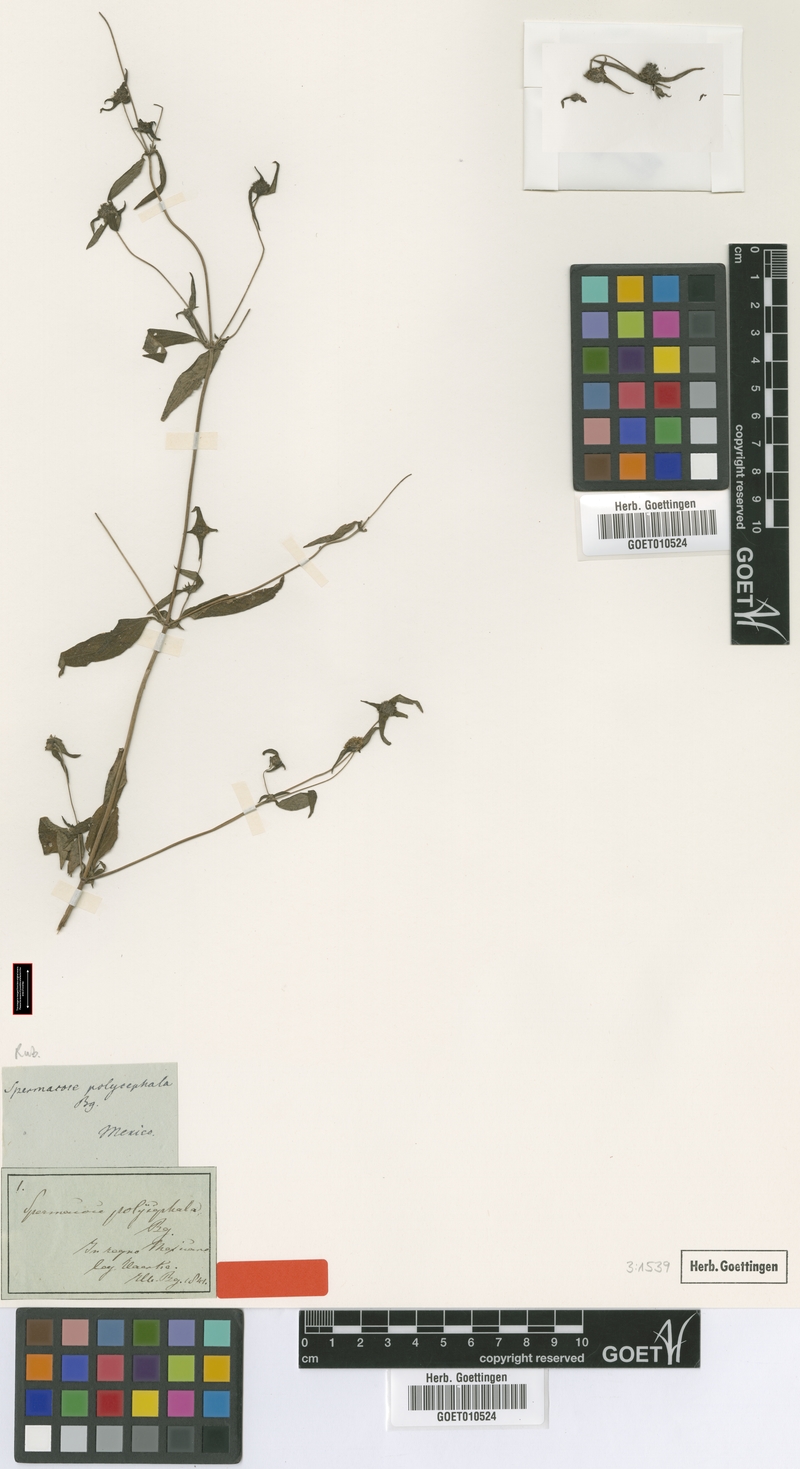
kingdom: Plantae
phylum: Tracheophyta
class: Magnoliopsida
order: Gentianales
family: Rubiaceae
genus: Spermacoce
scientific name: Spermacoce verticillata
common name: Shrubby false buttonweed
